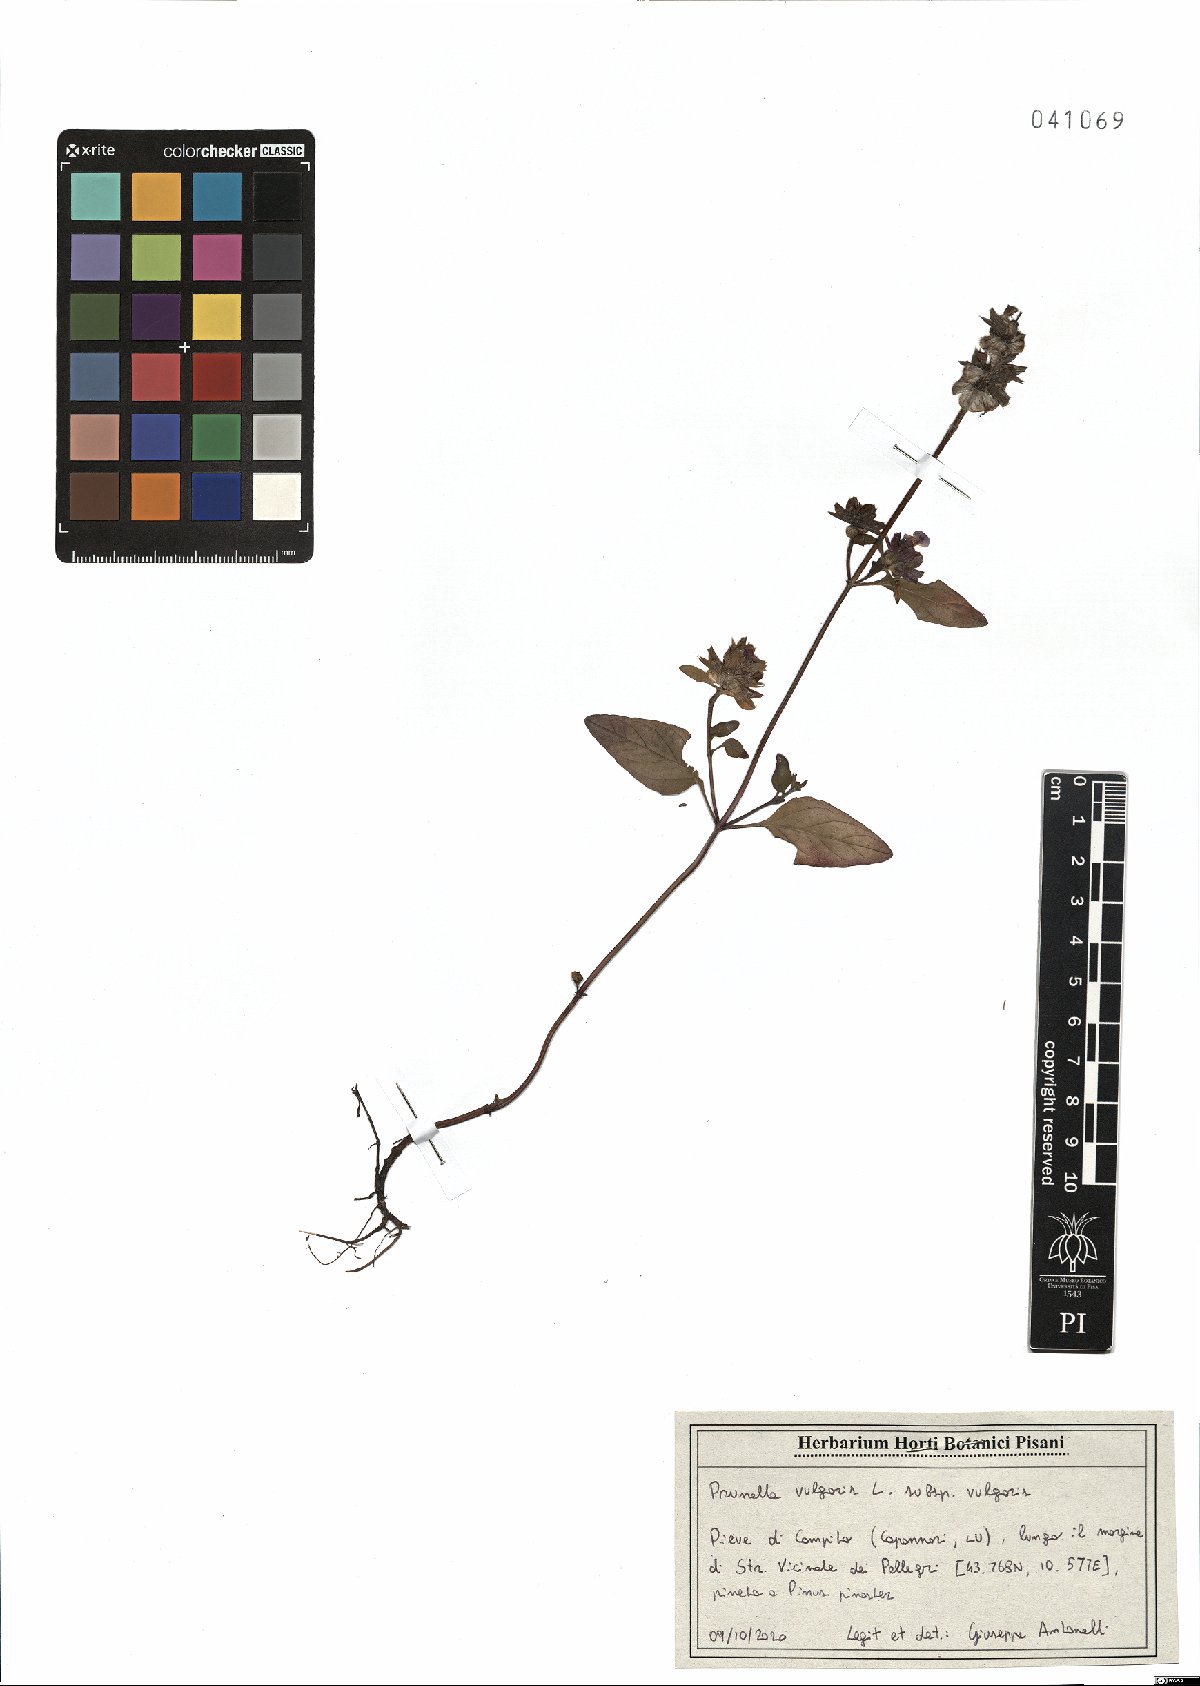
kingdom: Plantae
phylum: Tracheophyta
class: Magnoliopsida
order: Lamiales
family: Lamiaceae
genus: Prunella
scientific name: Prunella vulgaris
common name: Heal-all
